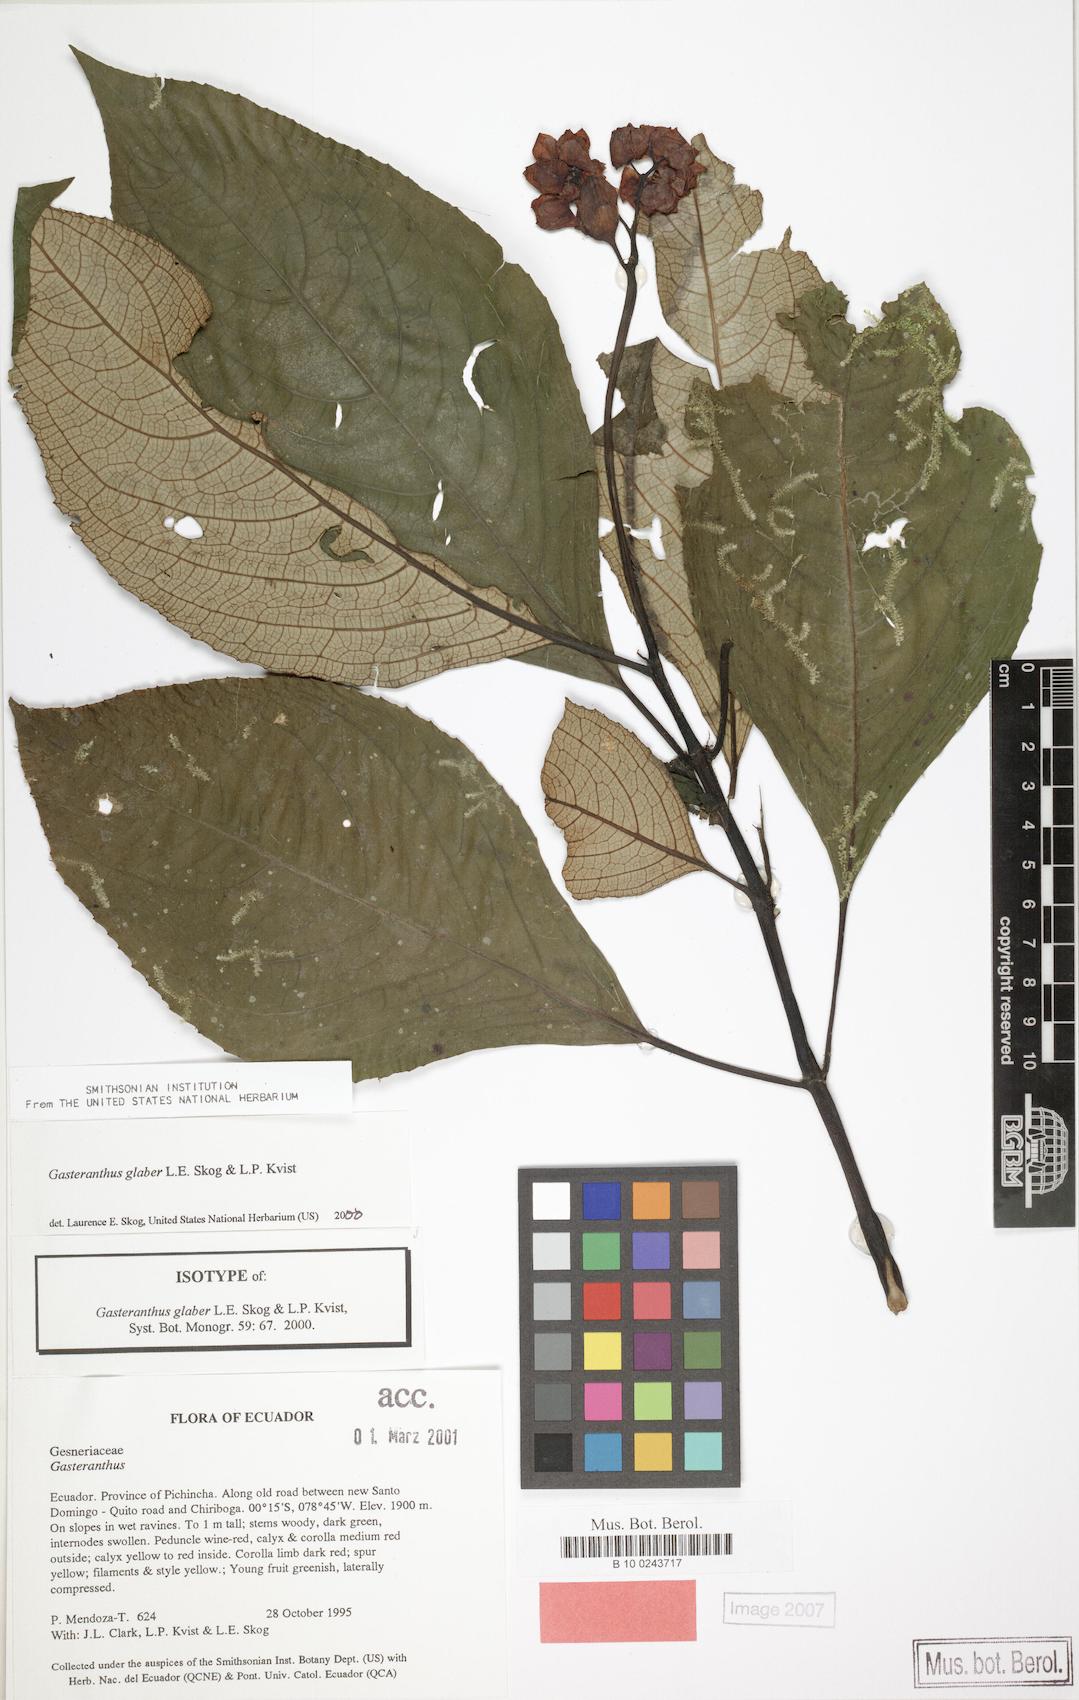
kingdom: Plantae
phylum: Tracheophyta
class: Magnoliopsida
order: Lamiales
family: Gesneriaceae
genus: Gasteranthus
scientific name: Gasteranthus glaber
